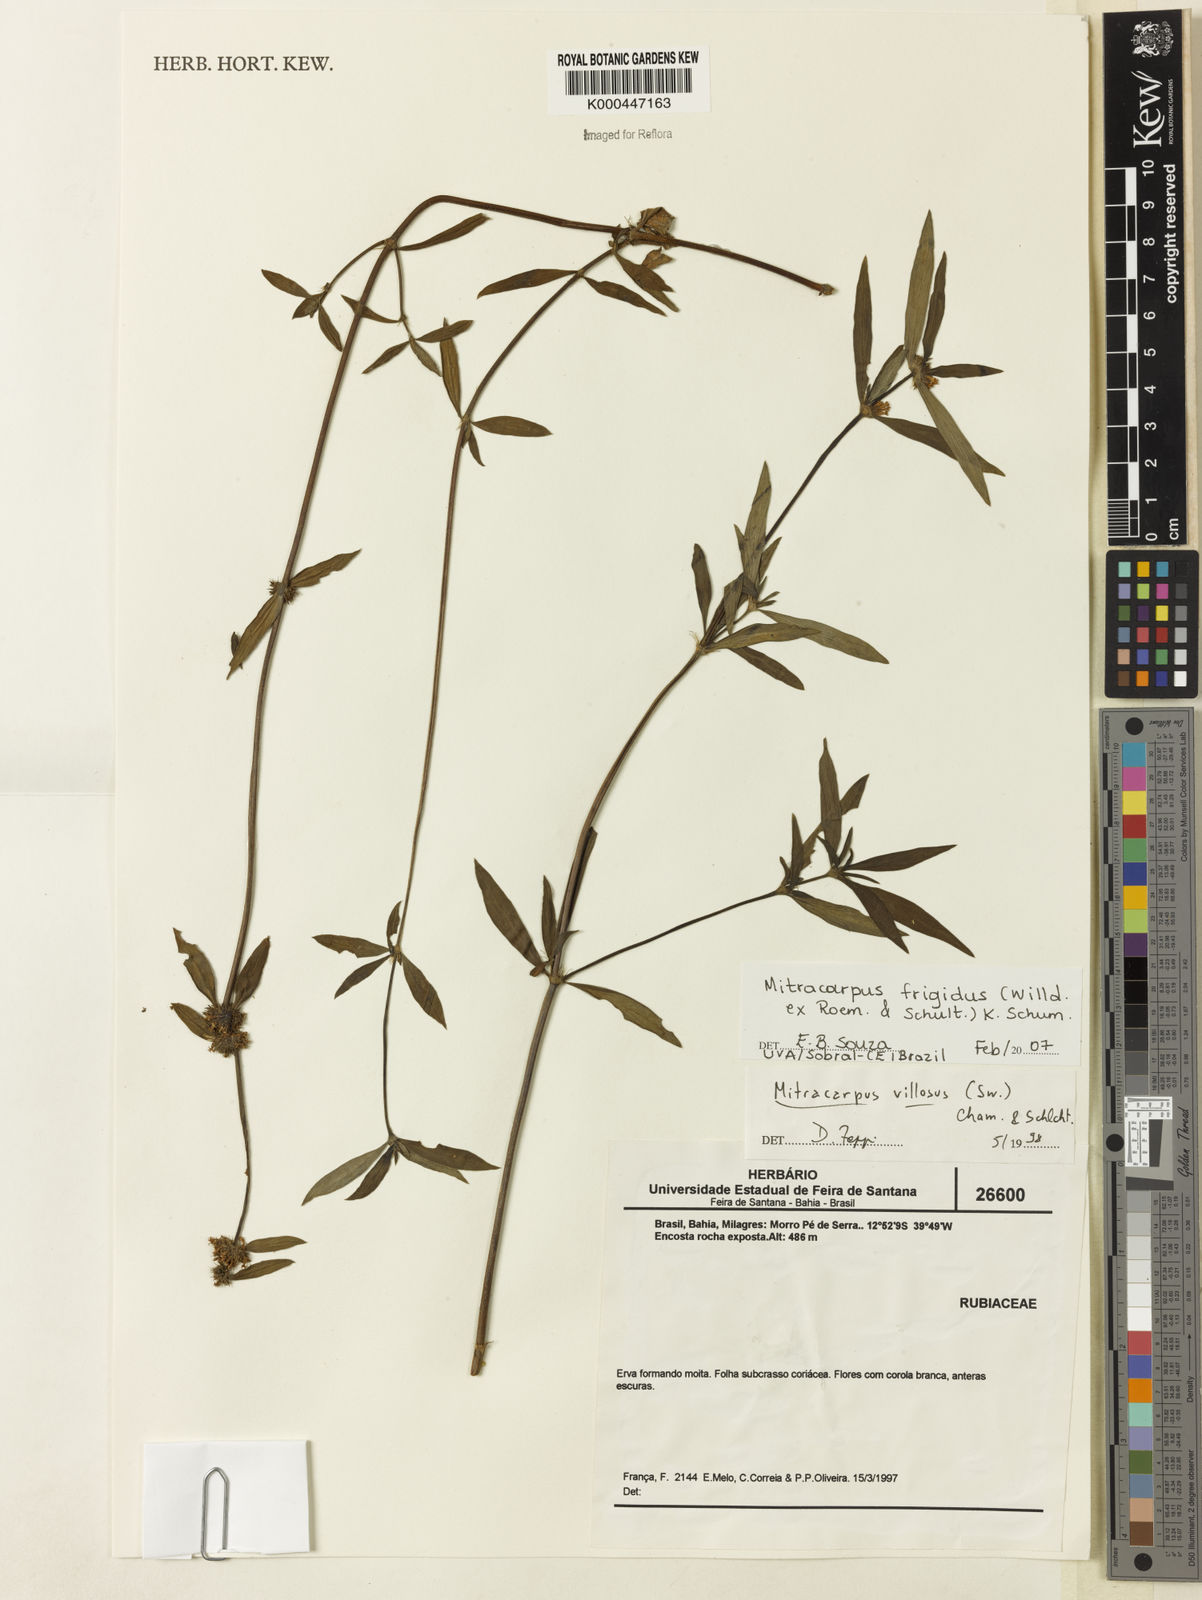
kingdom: Plantae
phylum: Tracheophyta
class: Magnoliopsida
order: Gentianales
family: Rubiaceae
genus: Mitracarpus
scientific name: Mitracarpus frigidus
